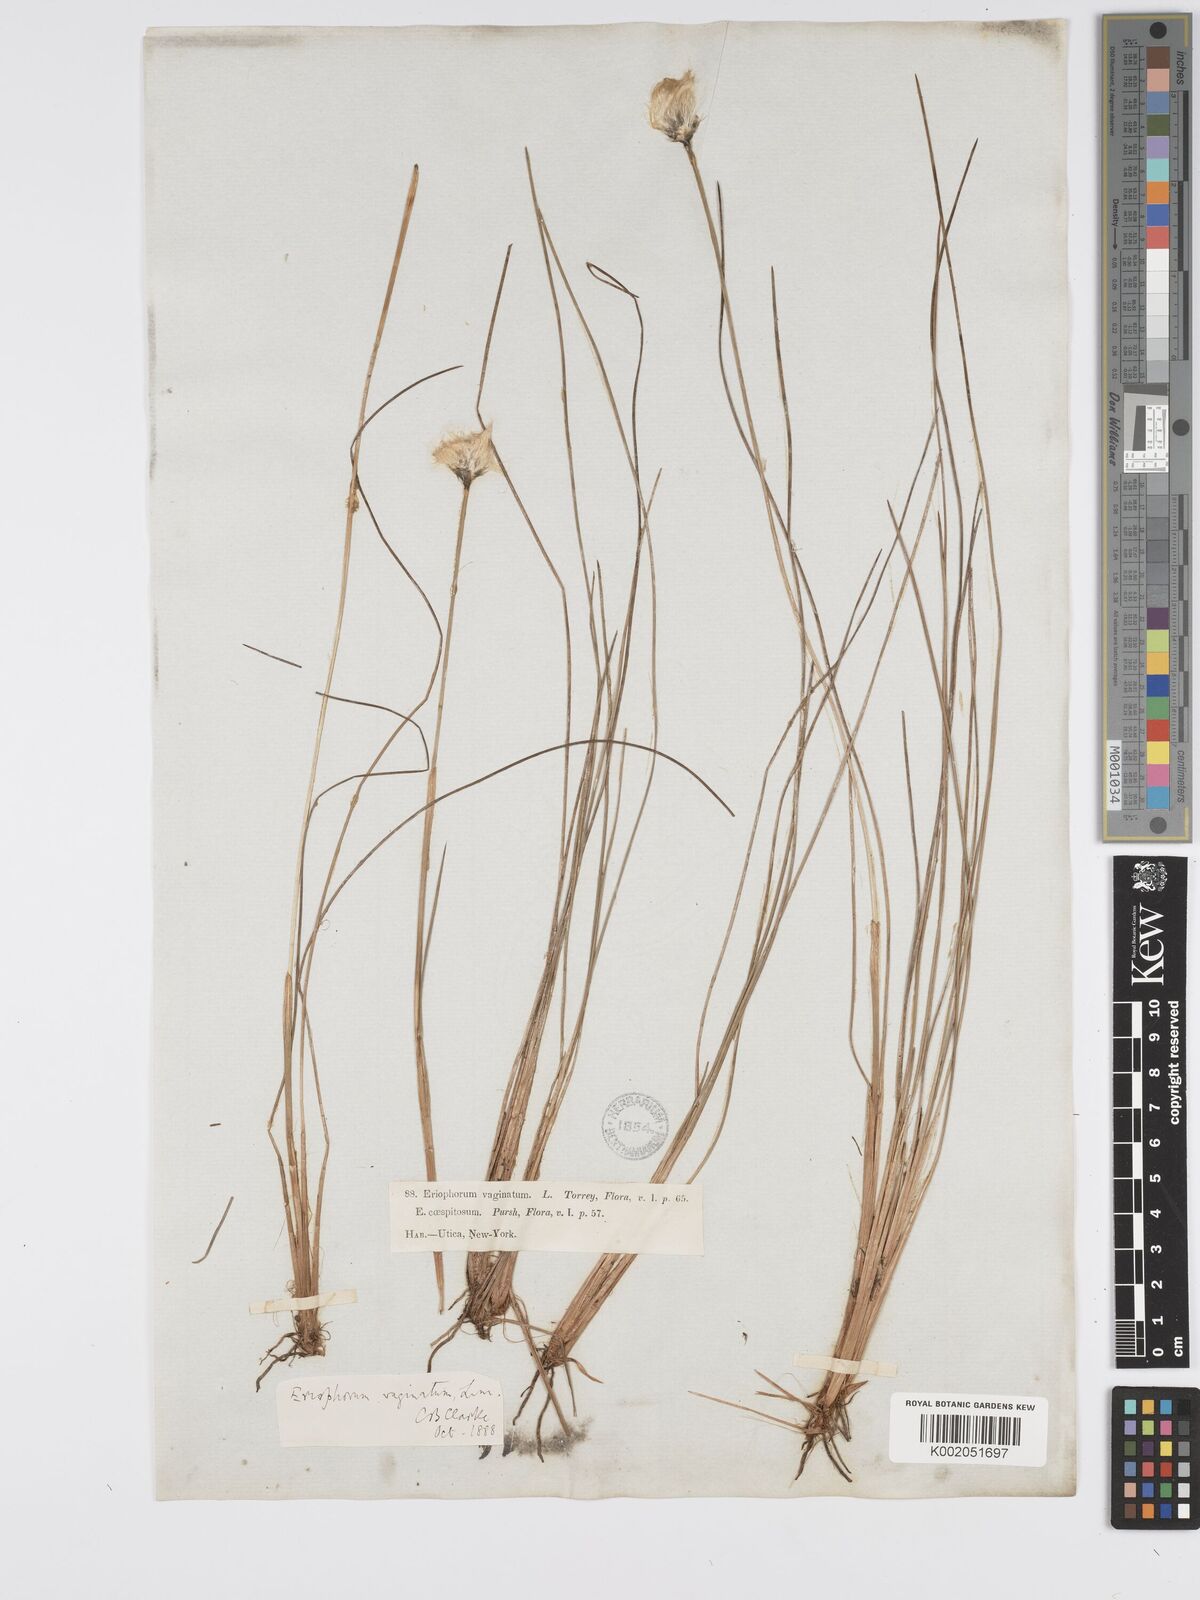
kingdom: Plantae
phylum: Tracheophyta
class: Liliopsida
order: Poales
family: Cyperaceae
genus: Eriophorum
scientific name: Eriophorum vaginatum
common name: Hare's-tail cottongrass
